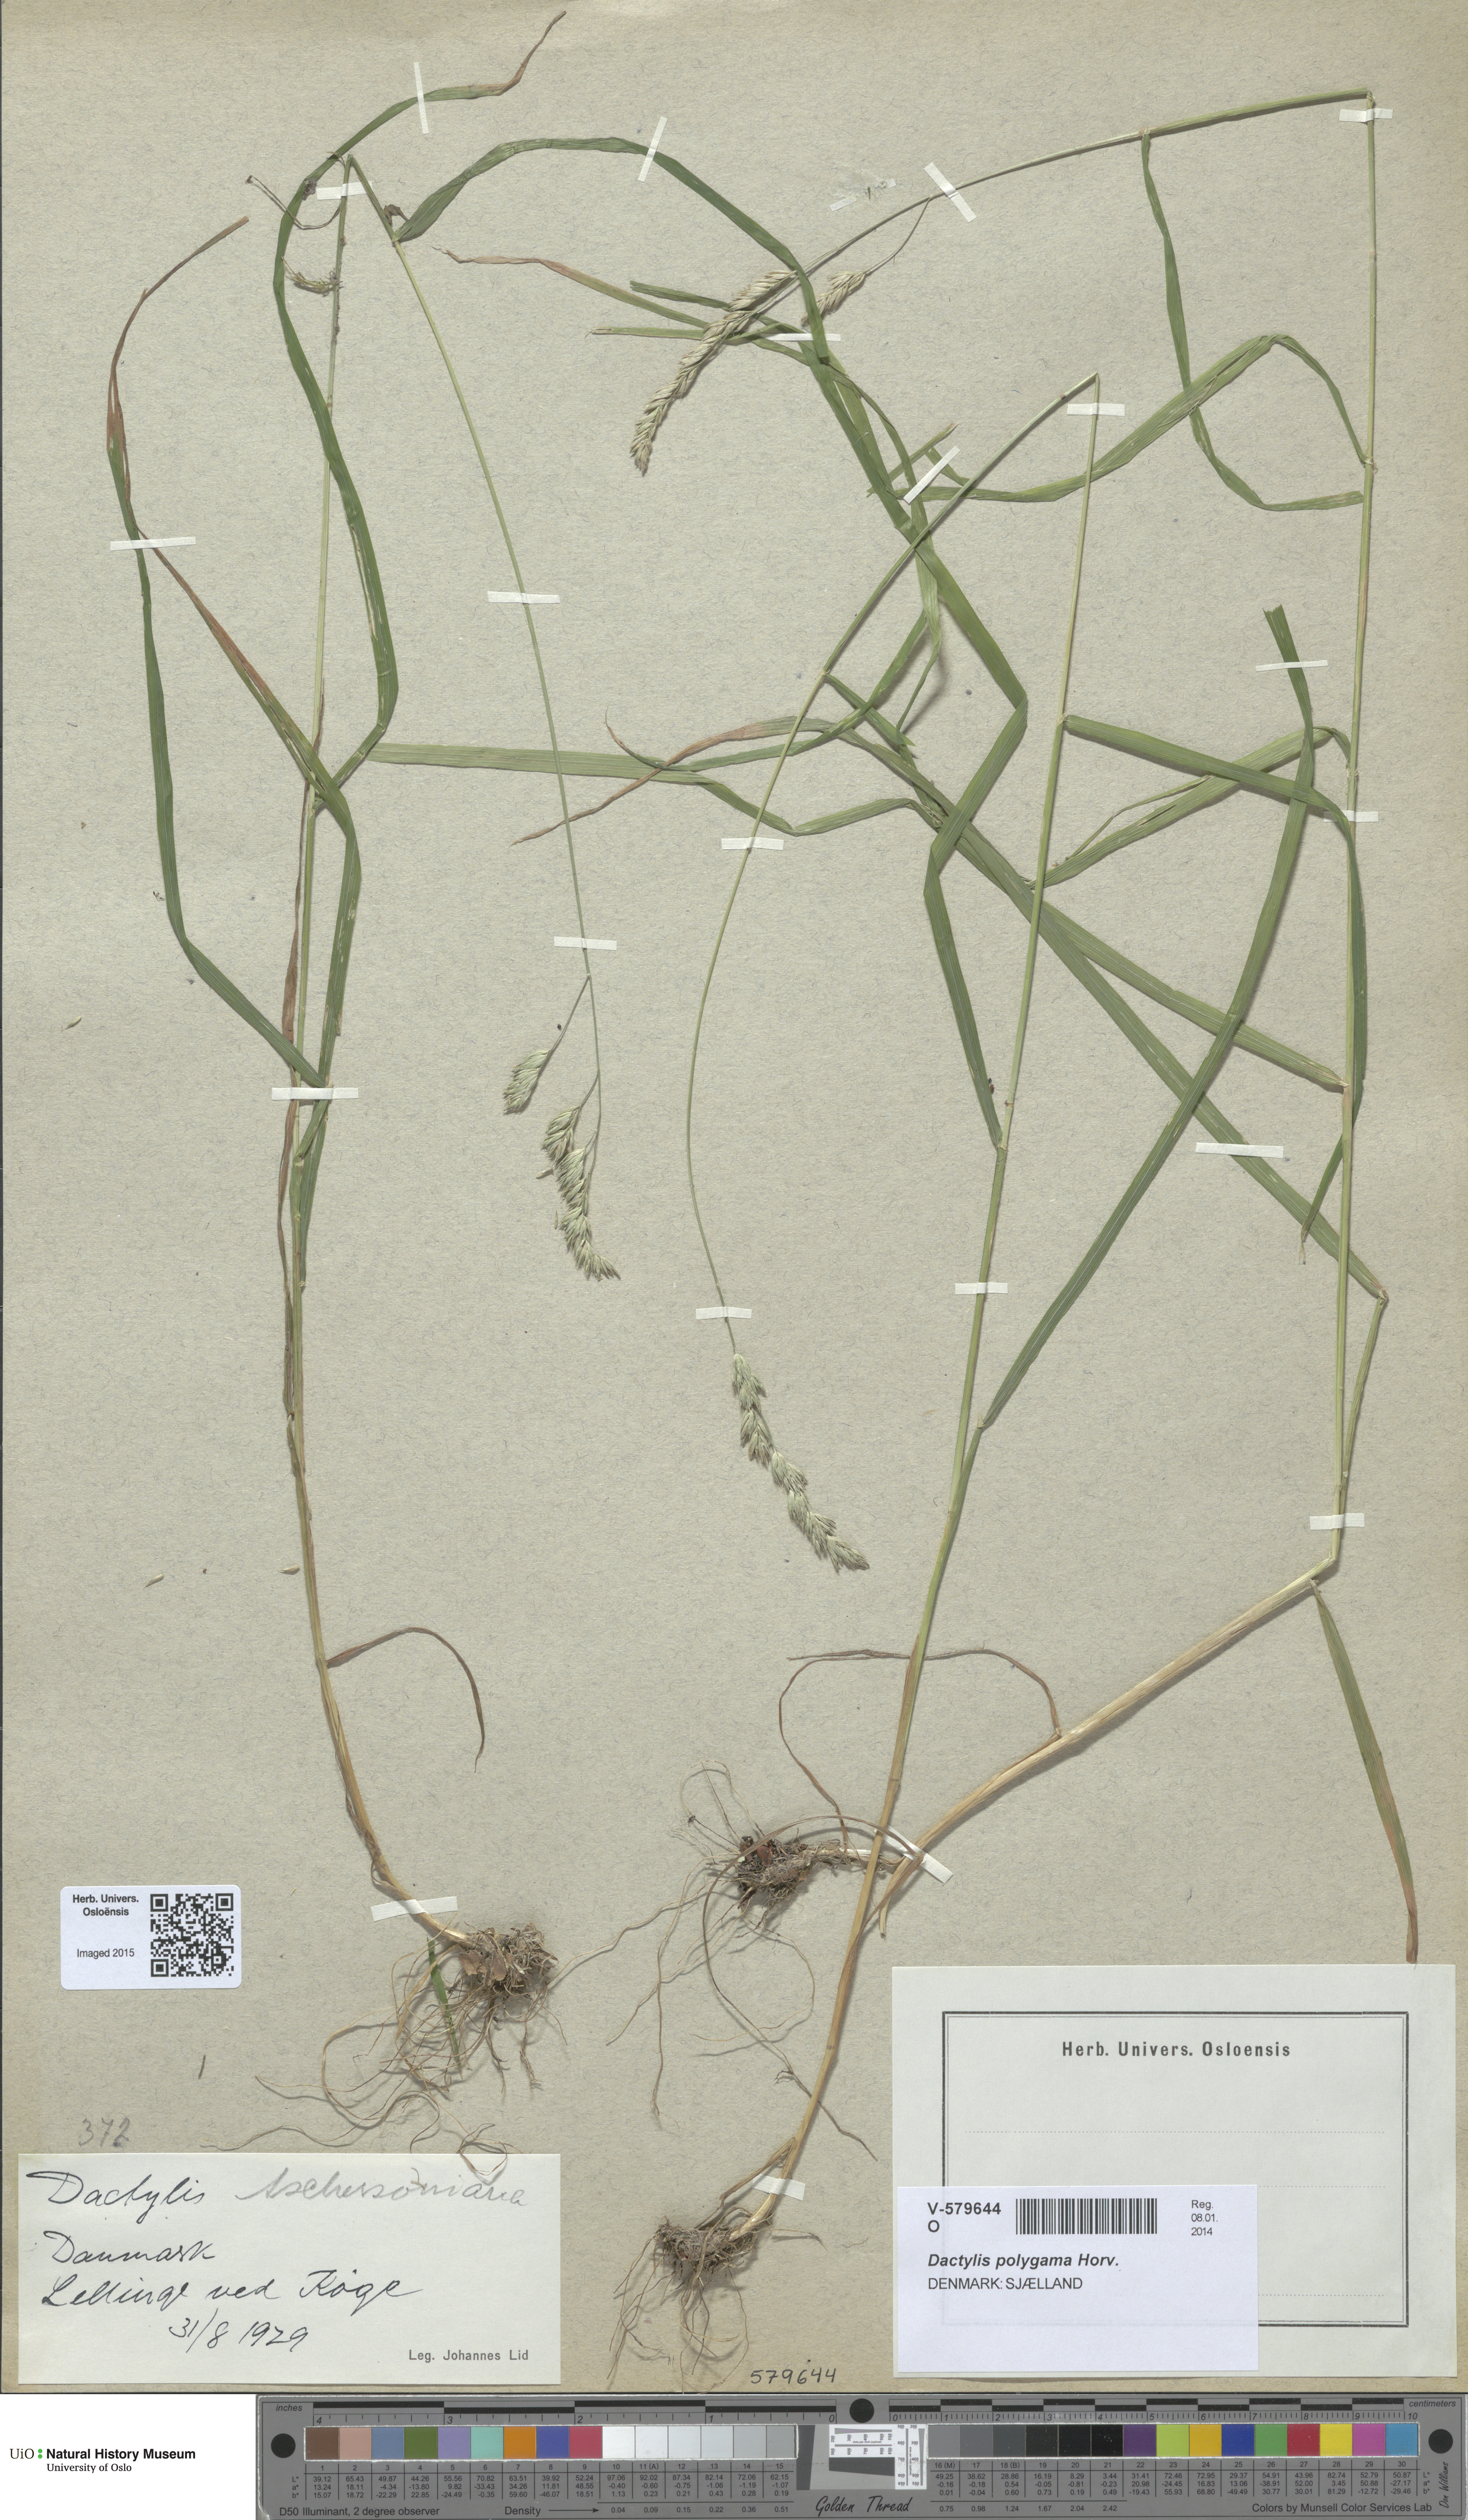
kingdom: Plantae
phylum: Tracheophyta
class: Liliopsida
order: Poales
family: Poaceae
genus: Dactylis
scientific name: Dactylis glomerata
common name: Orchardgrass
